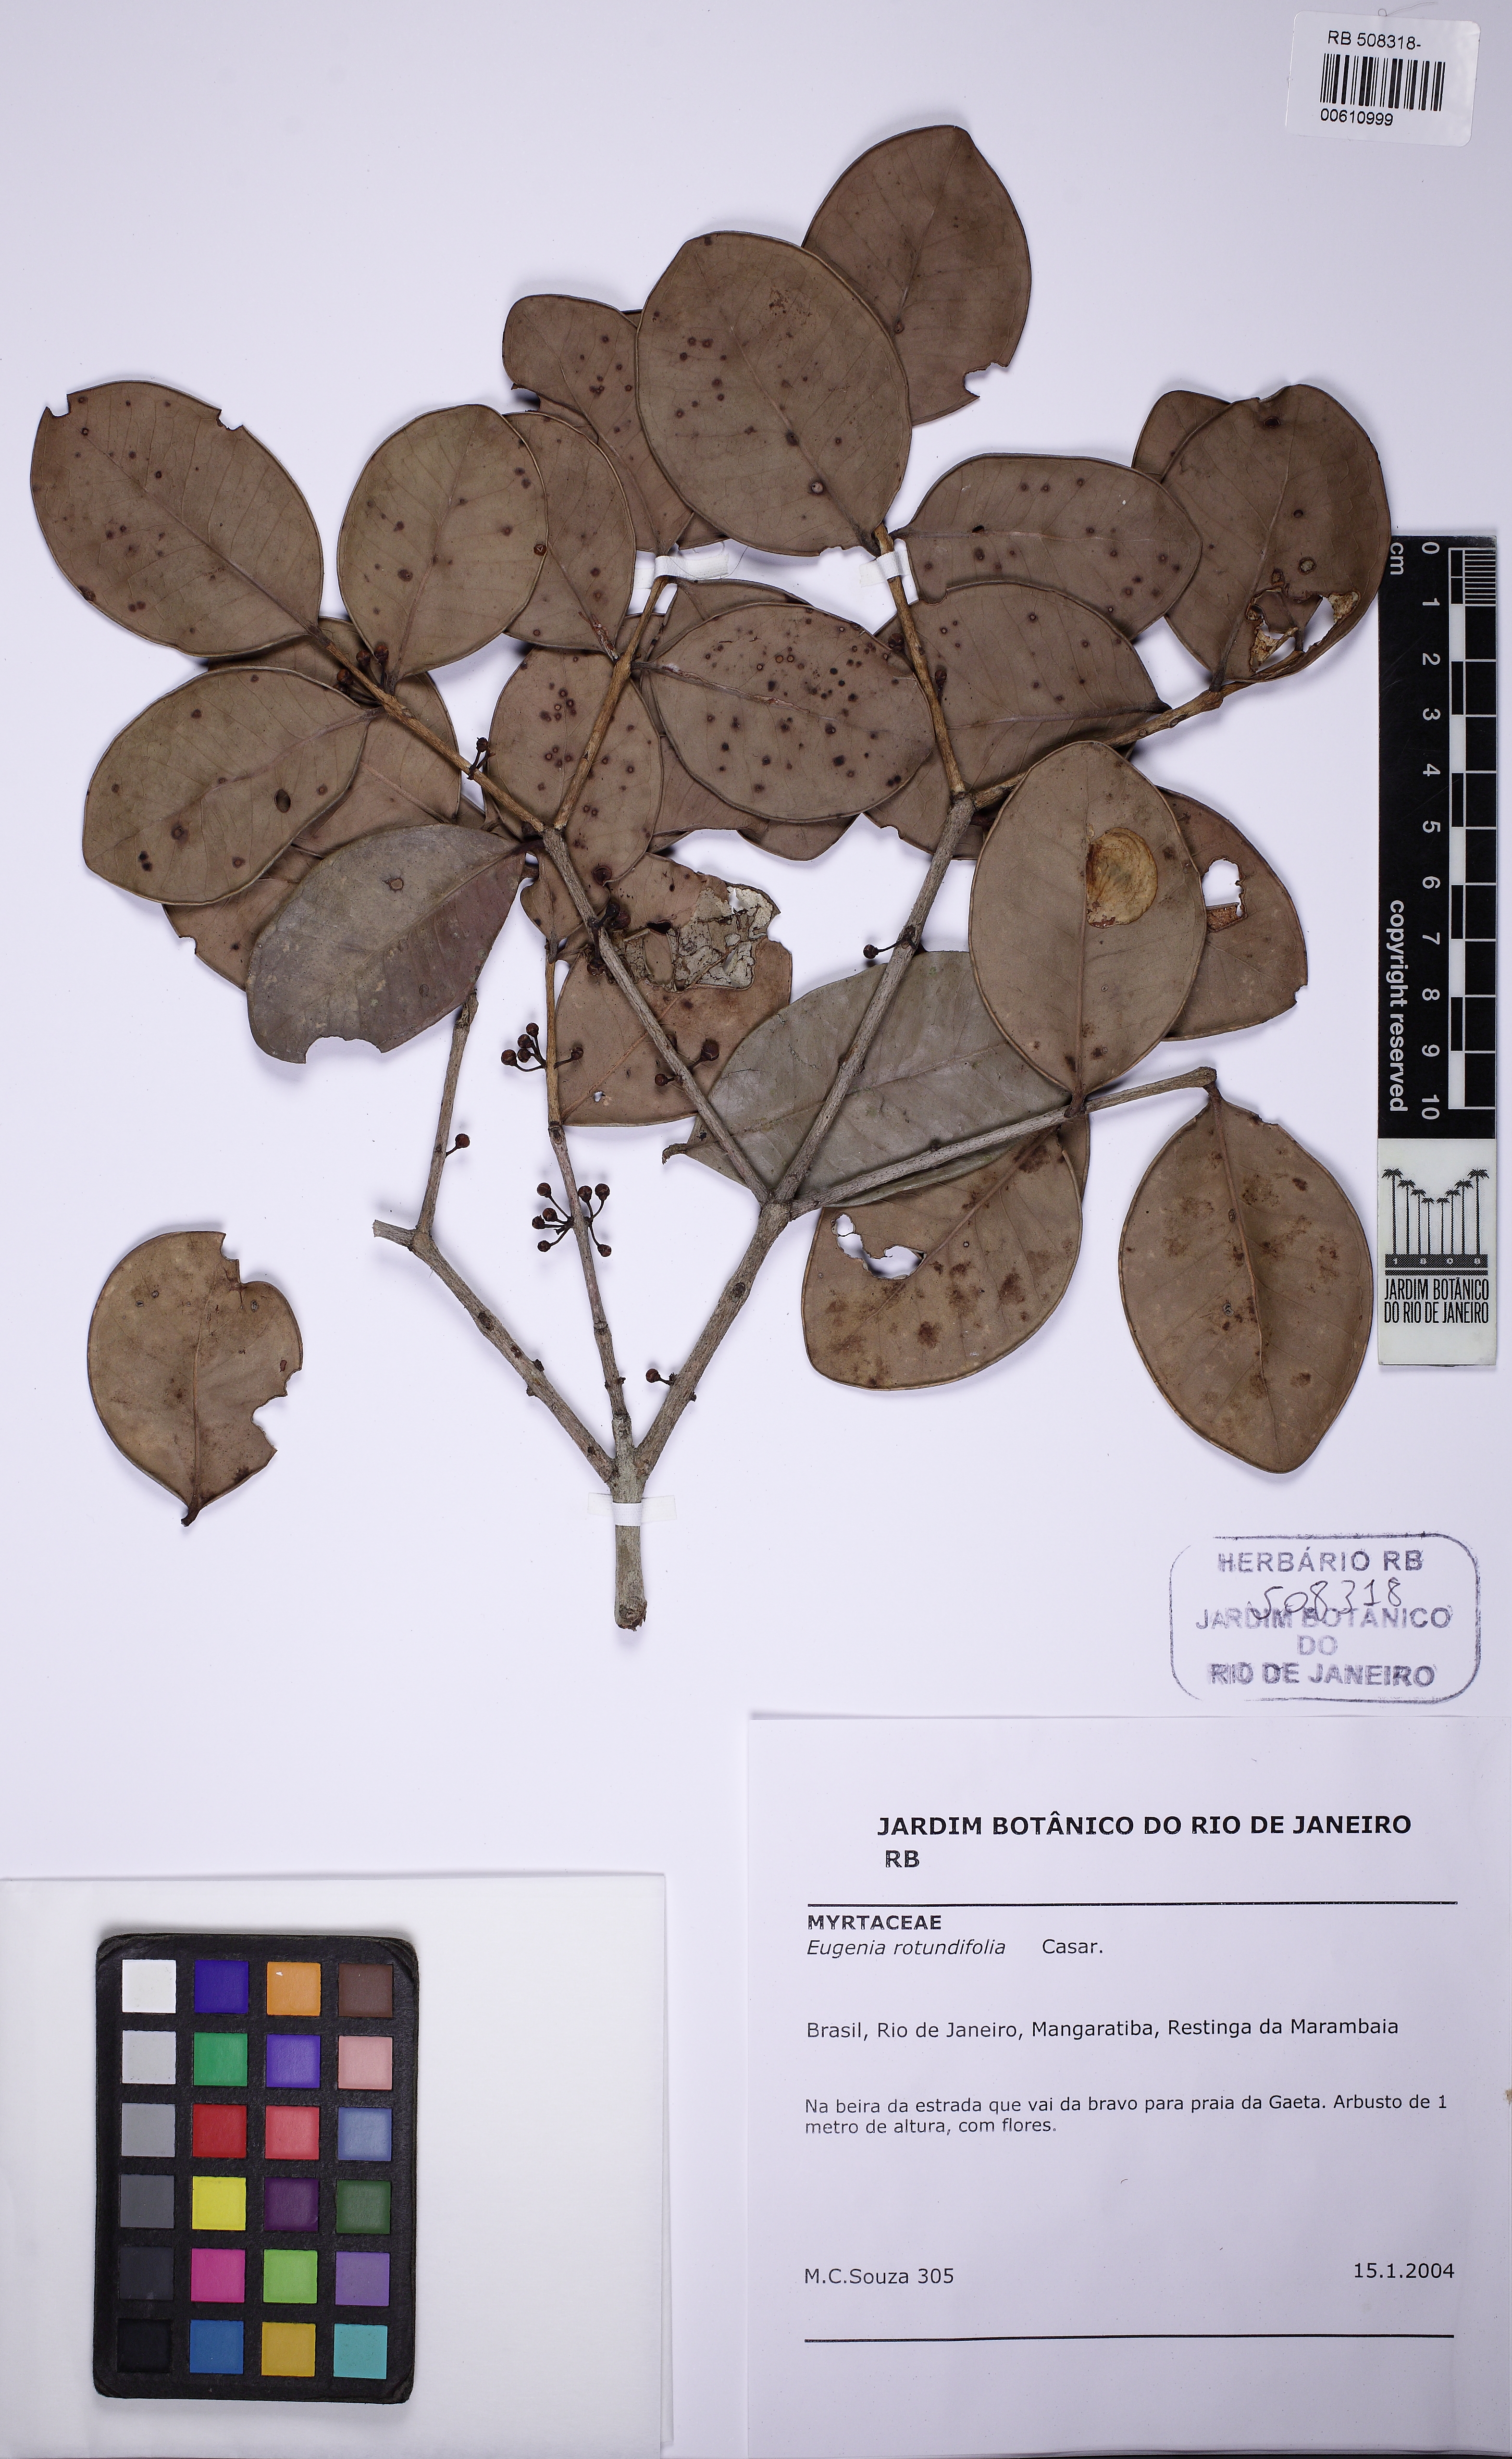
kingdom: Plantae
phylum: Tracheophyta
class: Magnoliopsida
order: Myrtales
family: Myrtaceae
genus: Syzygium
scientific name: Syzygium rotundifolium
